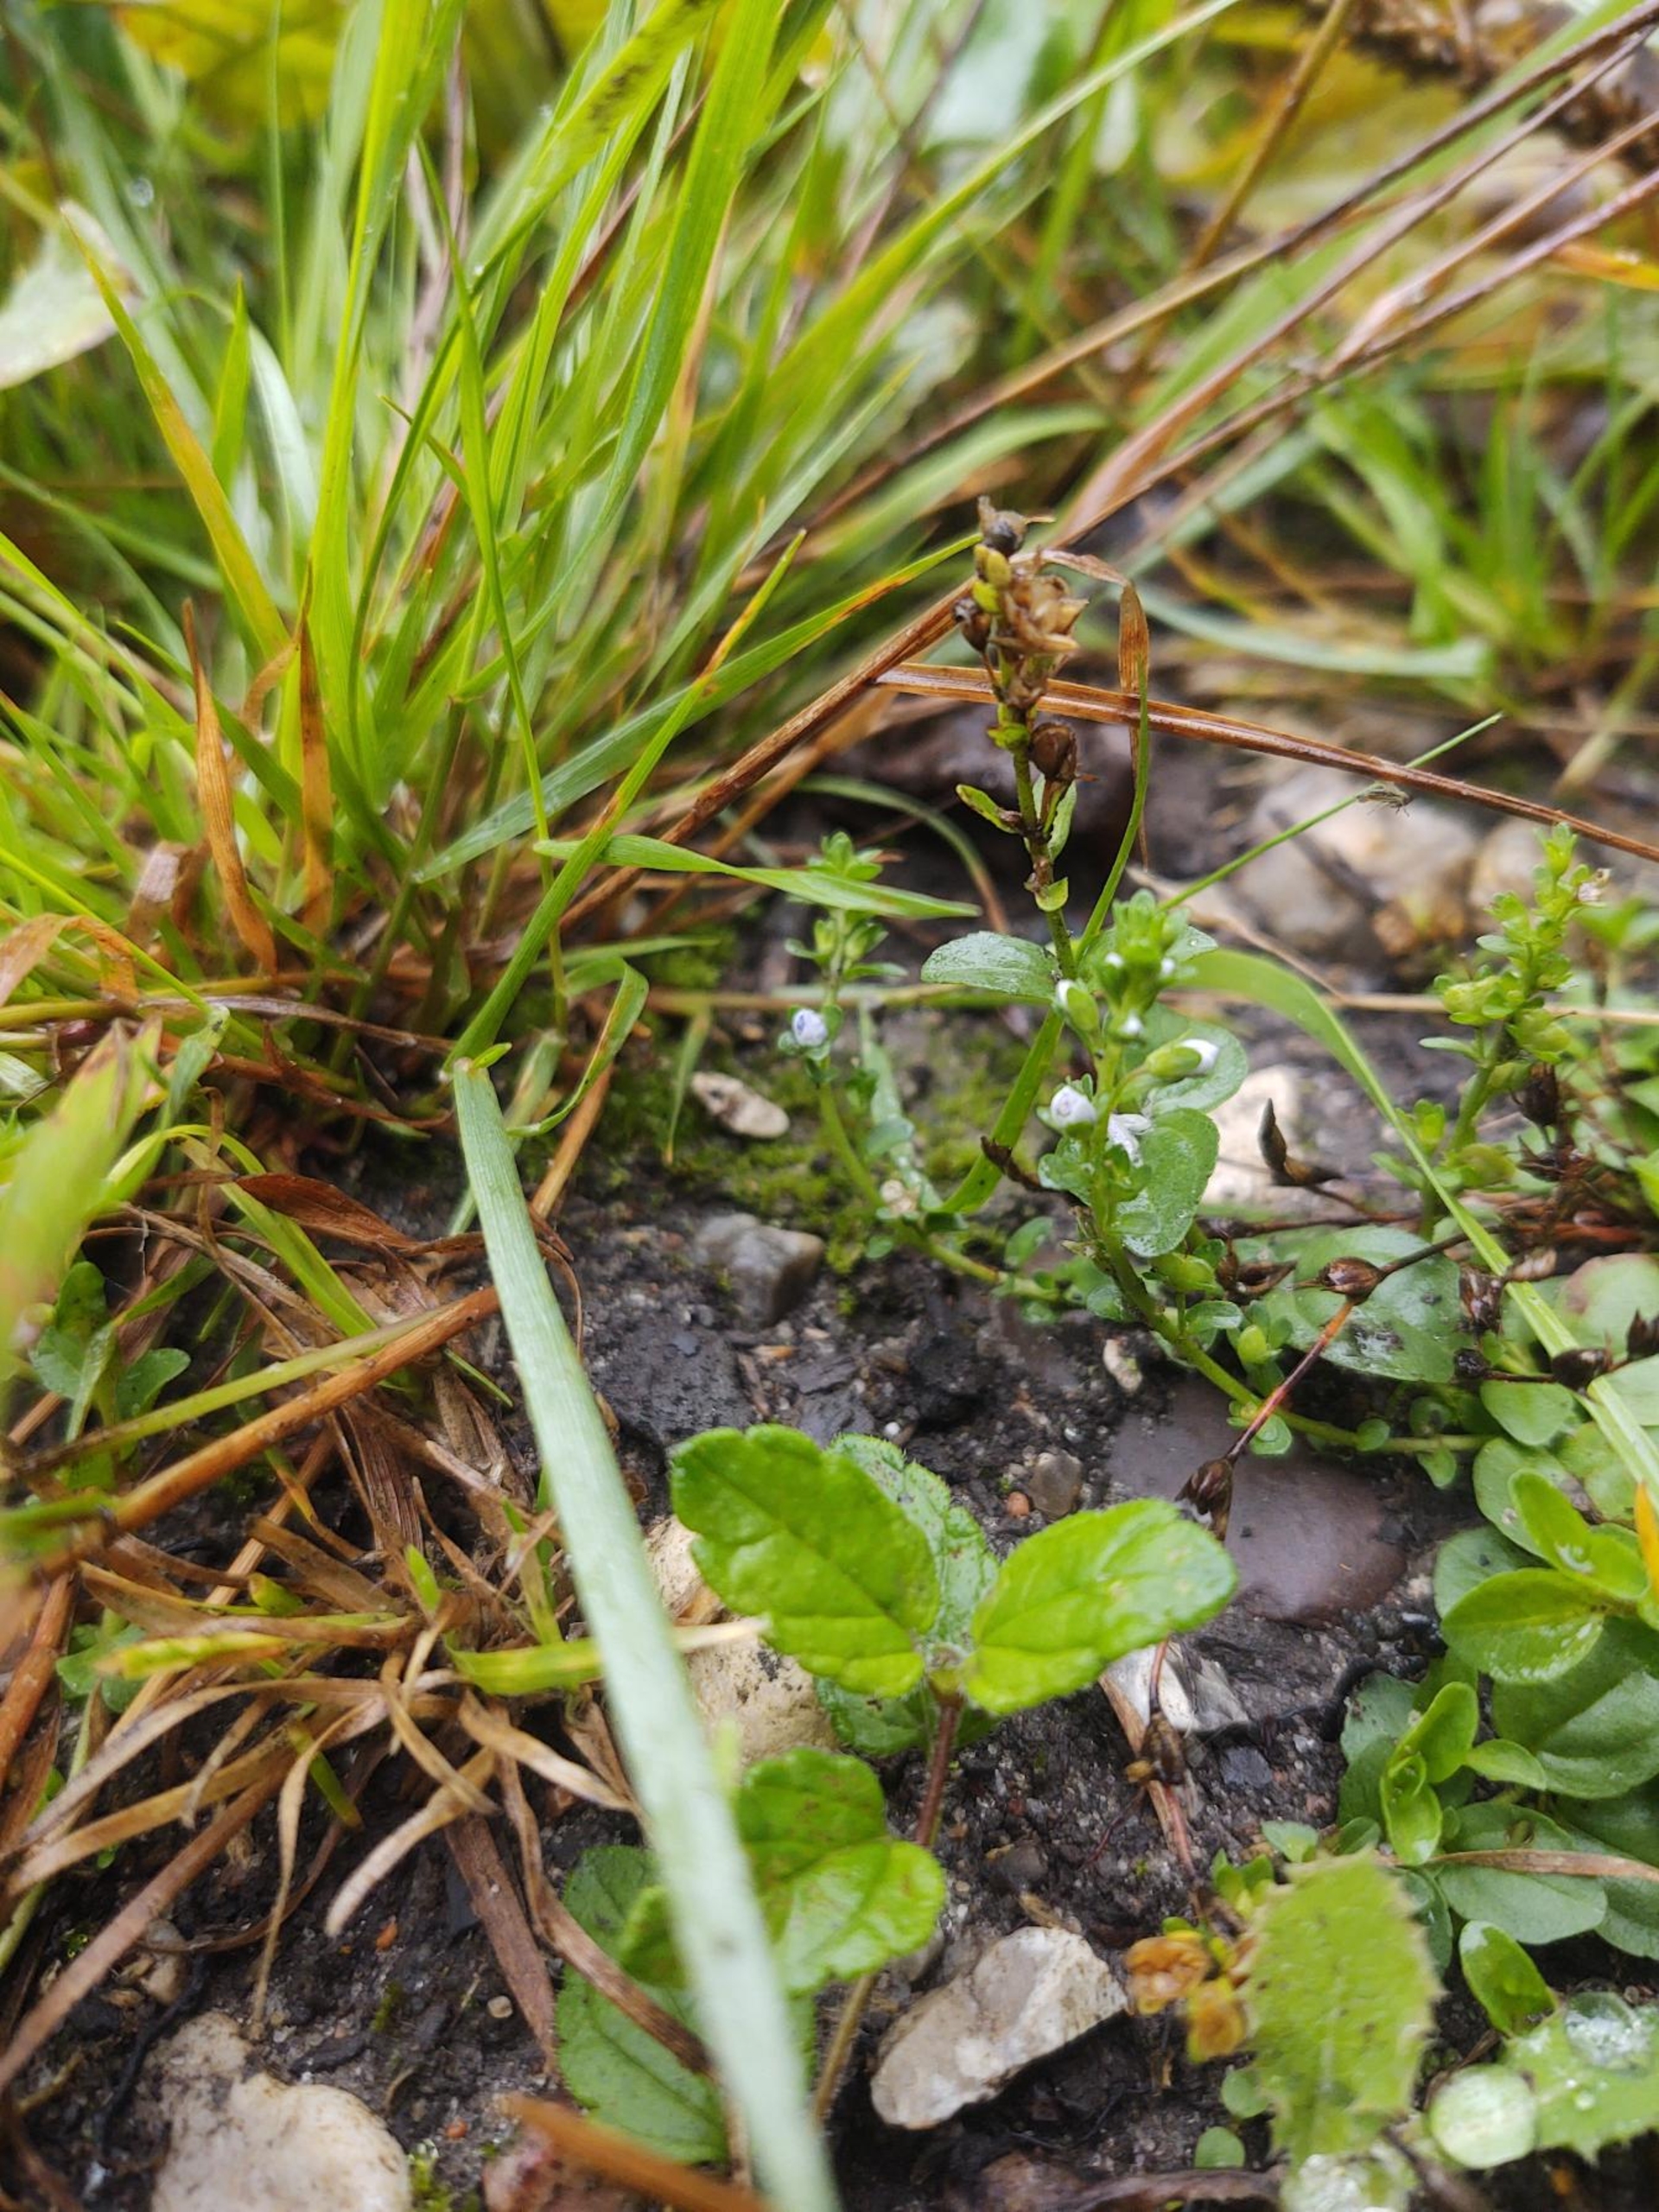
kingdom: Plantae
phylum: Tracheophyta
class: Magnoliopsida
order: Lamiales
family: Plantaginaceae
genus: Veronica
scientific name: Veronica serpyllifolia
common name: Glat ærenpris
